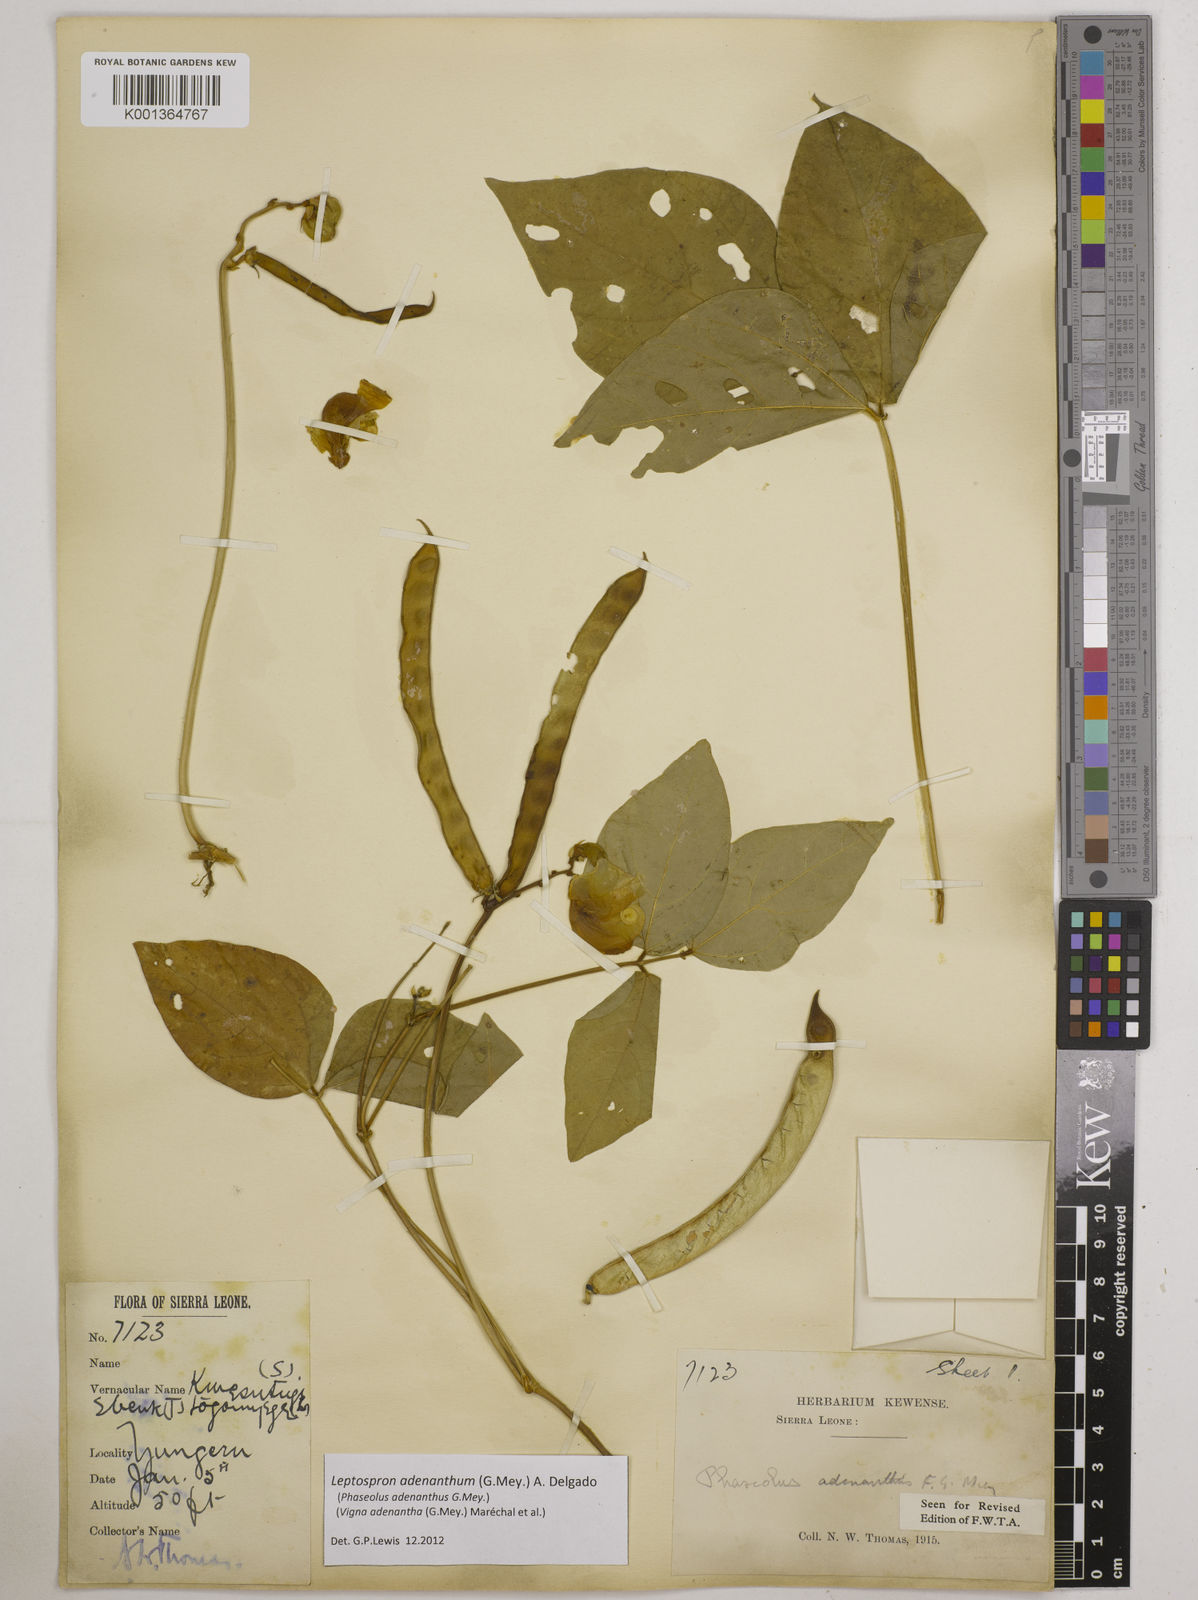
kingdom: Plantae
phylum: Tracheophyta
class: Magnoliopsida
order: Fabales
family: Fabaceae
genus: Leptospron
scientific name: Leptospron adenanthum
